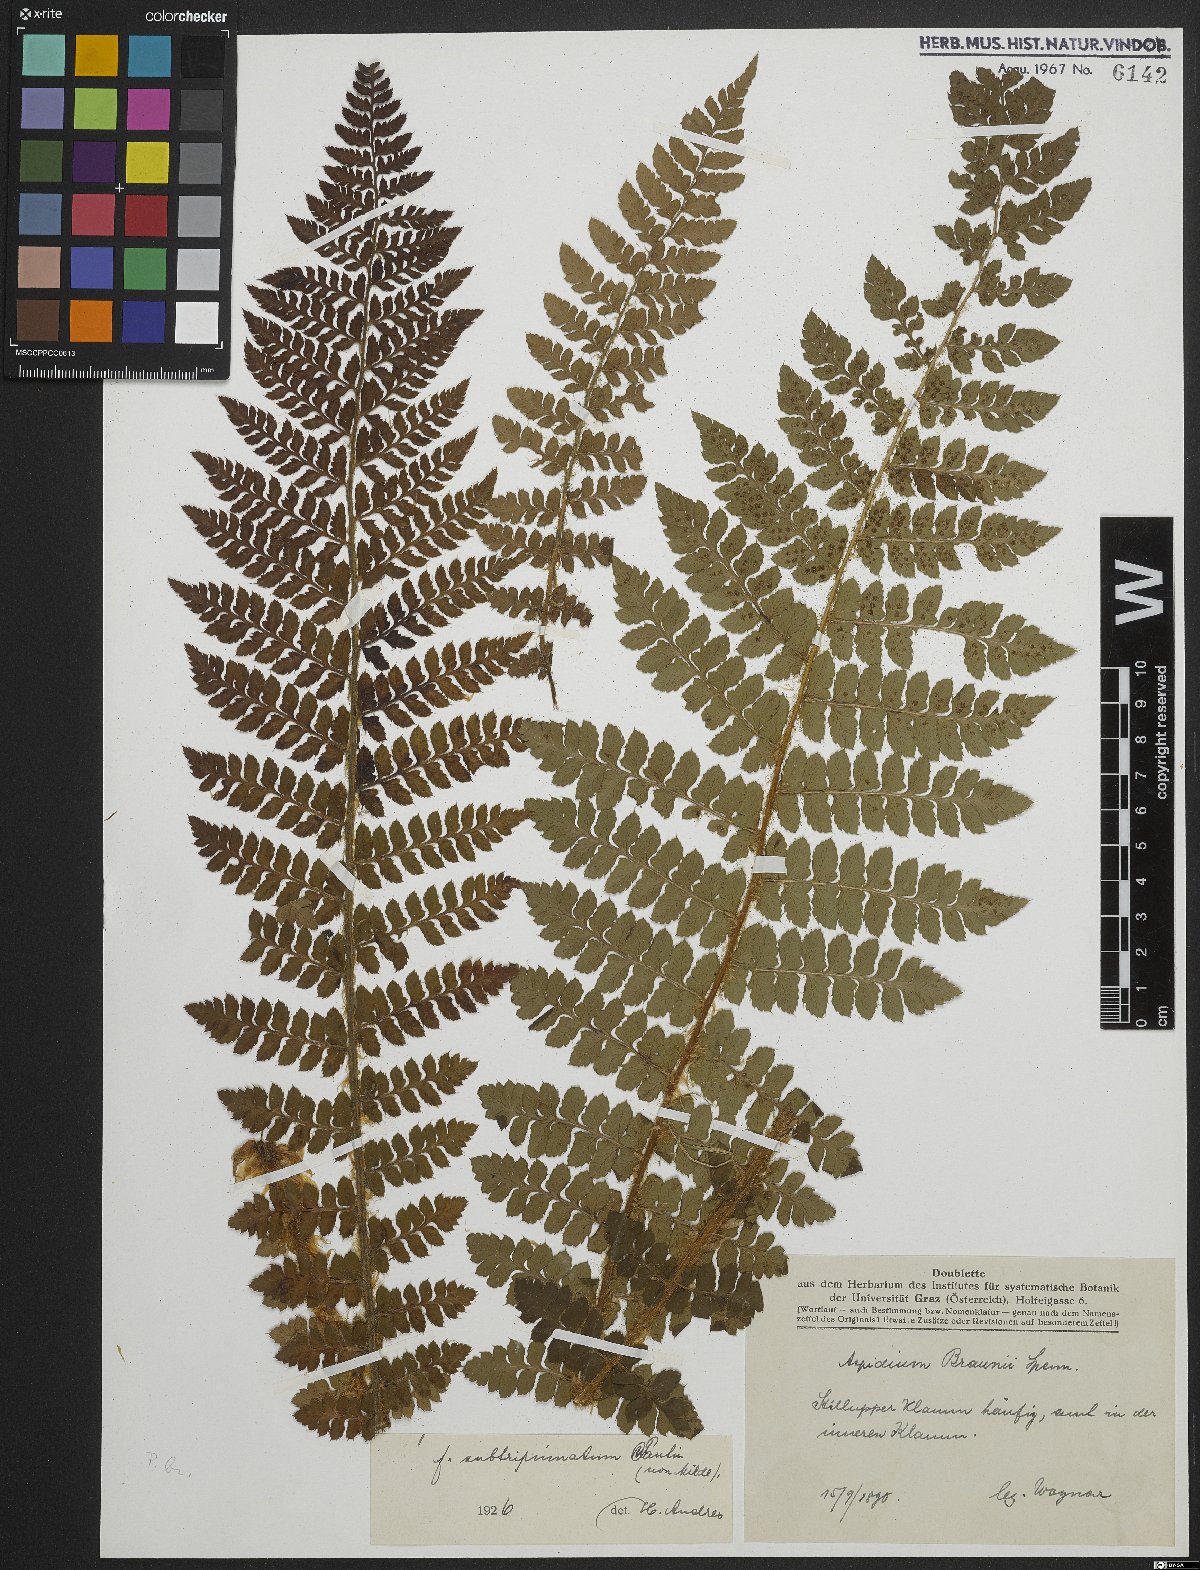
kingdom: Plantae
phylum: Tracheophyta
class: Polypodiopsida
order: Polypodiales
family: Dryopteridaceae
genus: Polystichum
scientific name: Polystichum braunii
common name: Braun's holly fern
